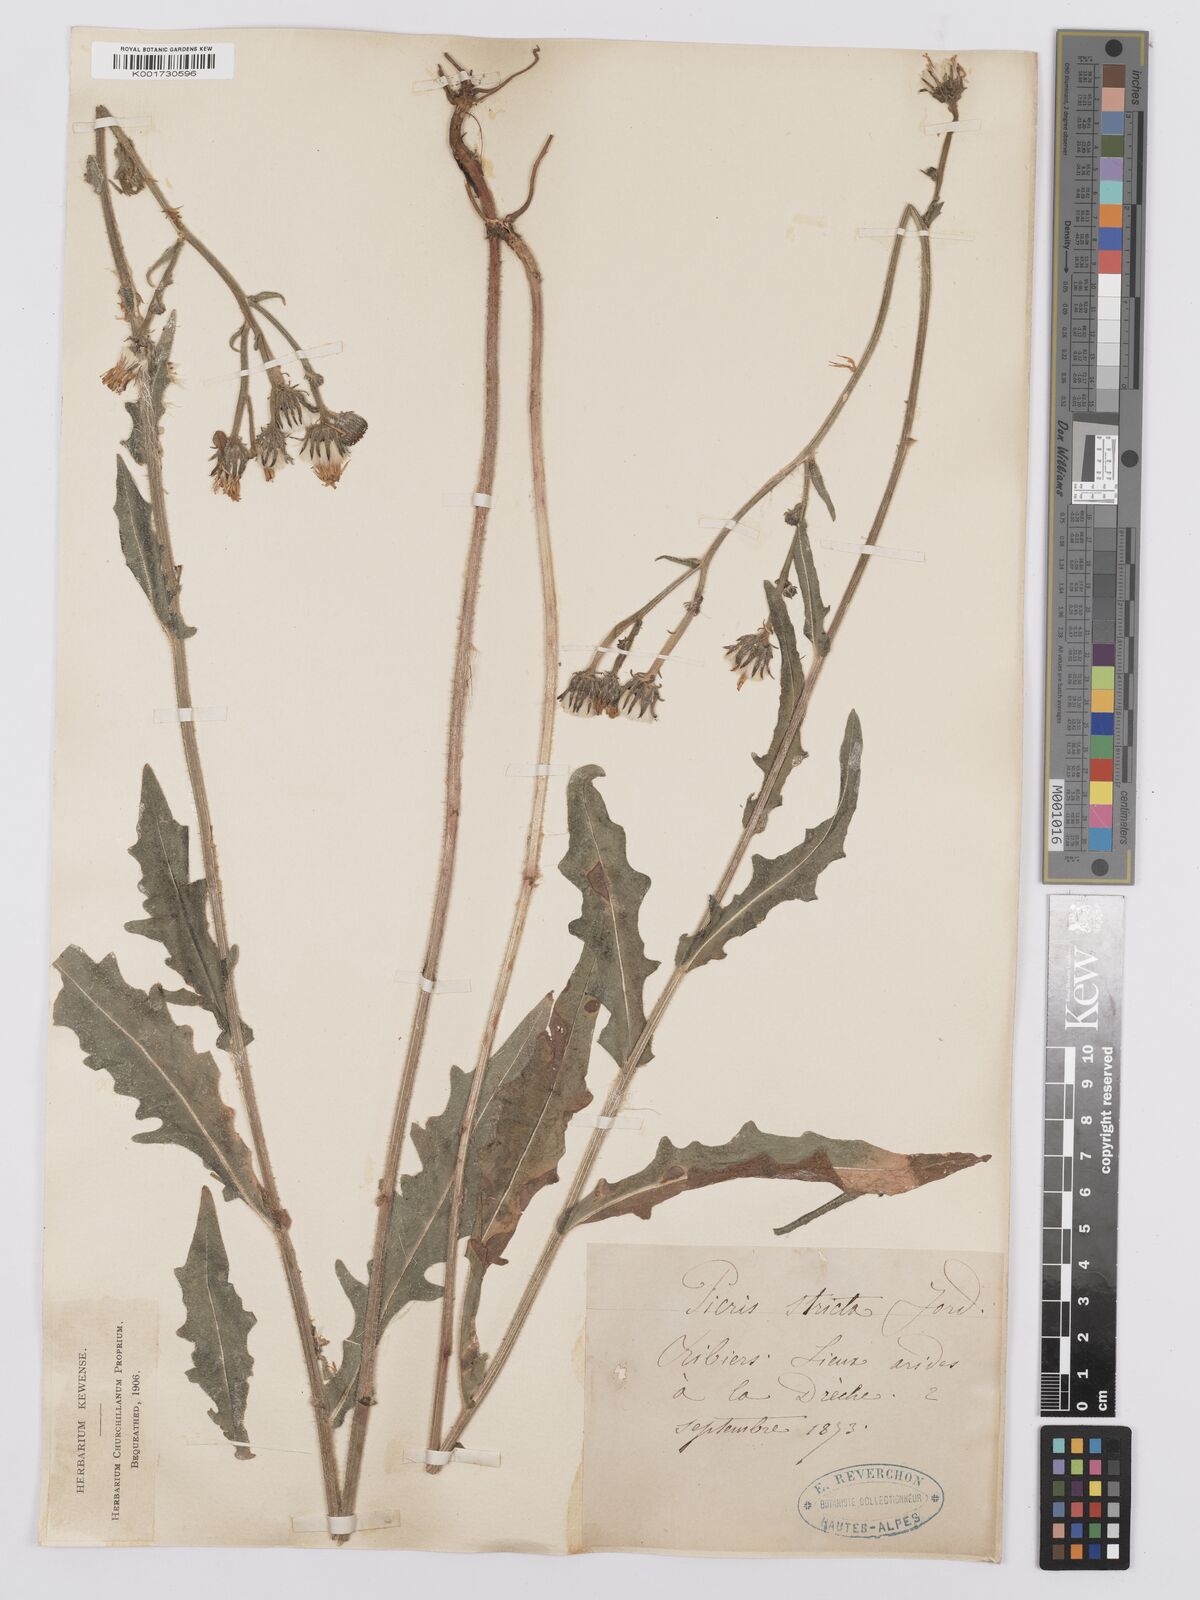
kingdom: Plantae
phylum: Tracheophyta
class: Magnoliopsida
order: Asterales
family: Asteraceae
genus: Picris
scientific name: Picris hieracioides
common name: Hawkweed oxtongue
